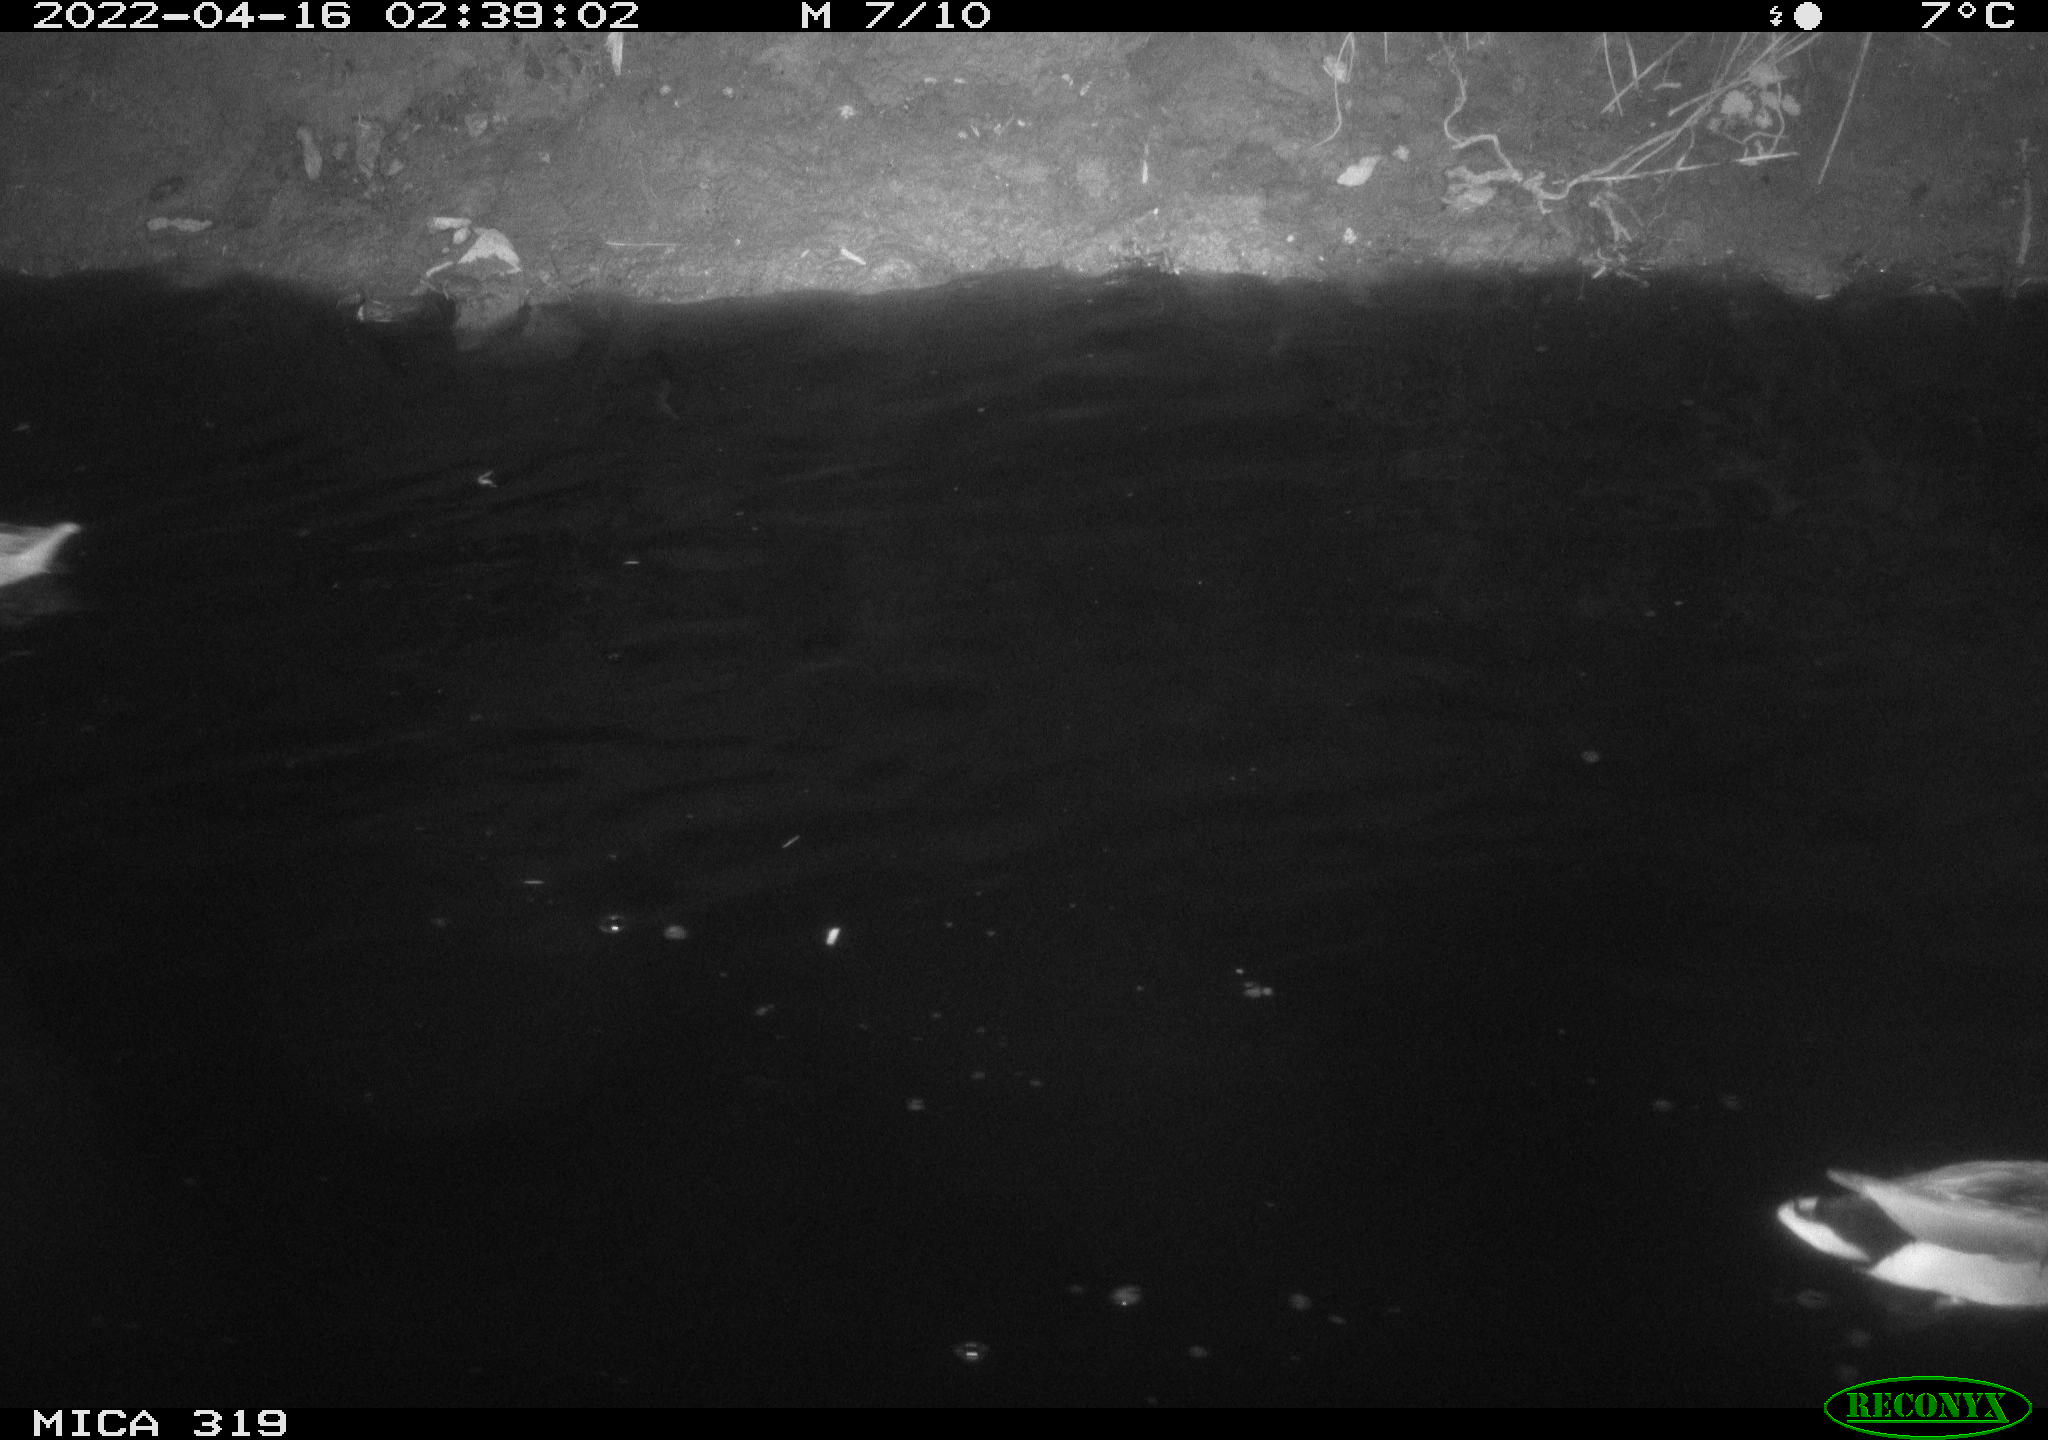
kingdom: Animalia
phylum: Chordata
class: Aves
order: Anseriformes
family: Anatidae
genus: Anas
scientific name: Anas platyrhynchos
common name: Mallard
